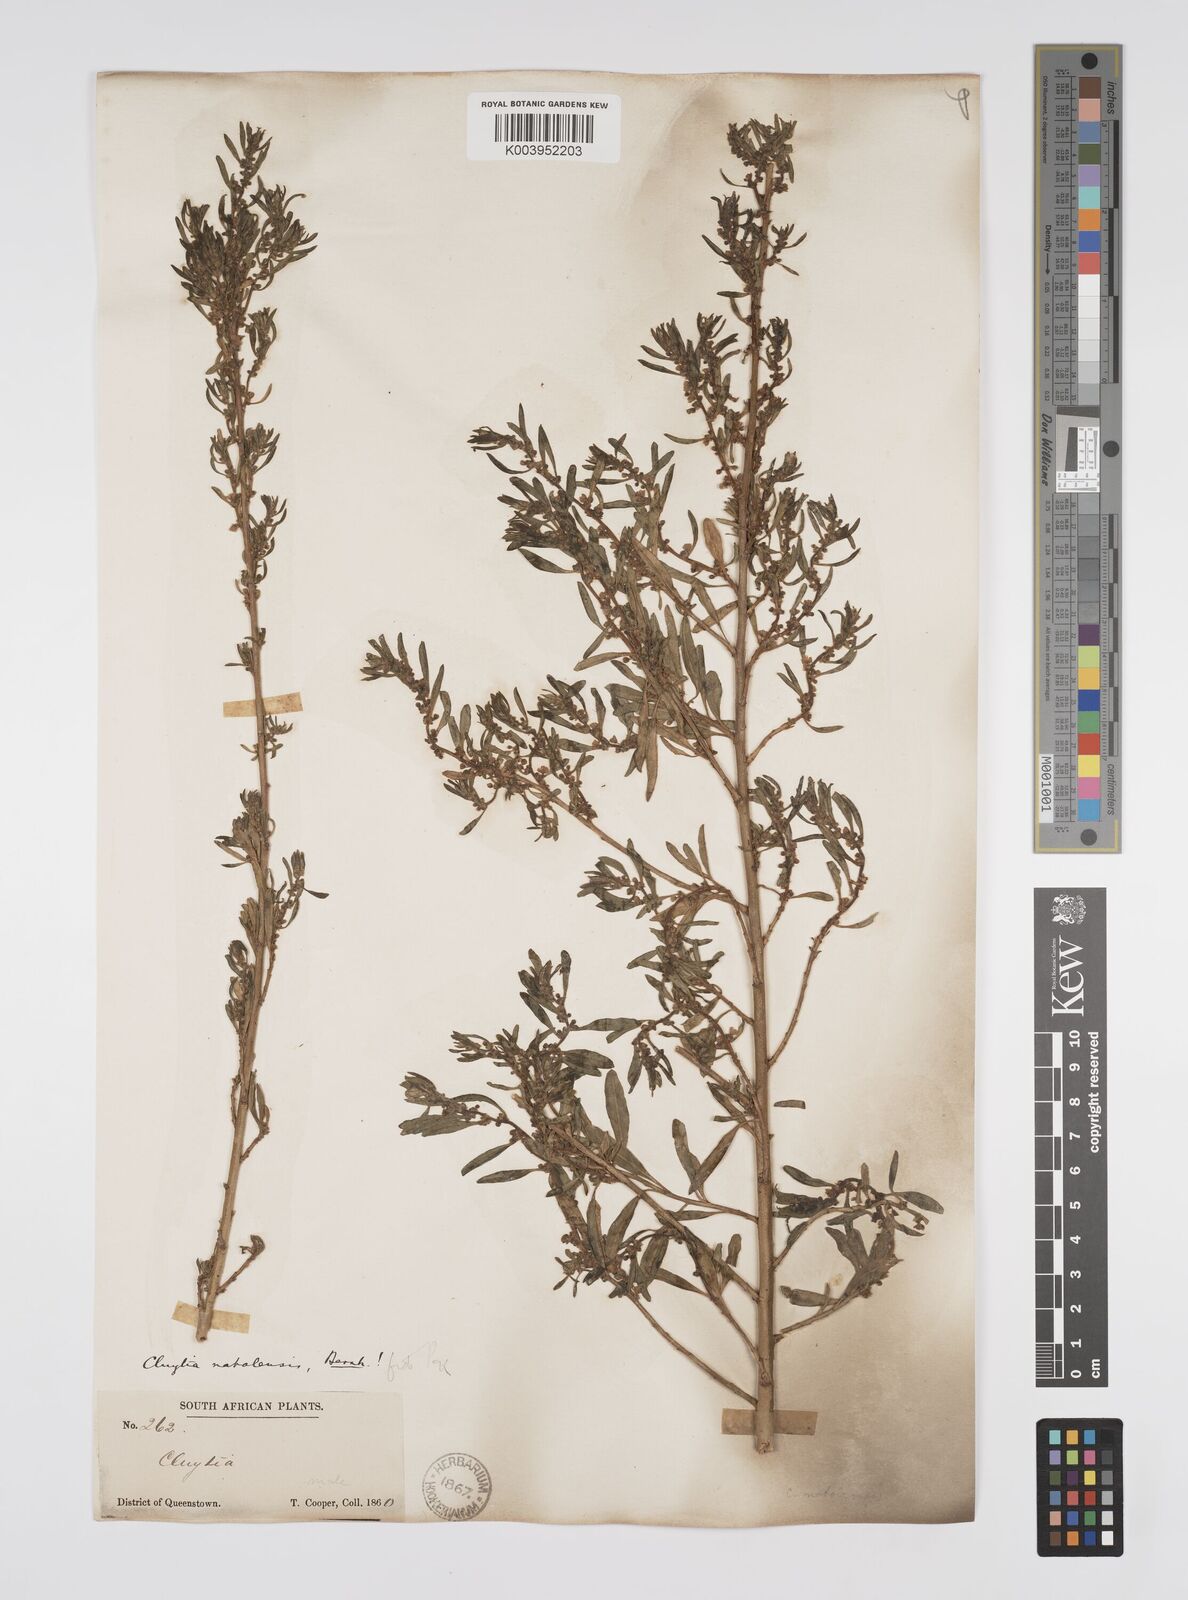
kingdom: Plantae
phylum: Tracheophyta
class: Magnoliopsida
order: Malpighiales
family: Peraceae
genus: Clutia
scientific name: Clutia natalensis
